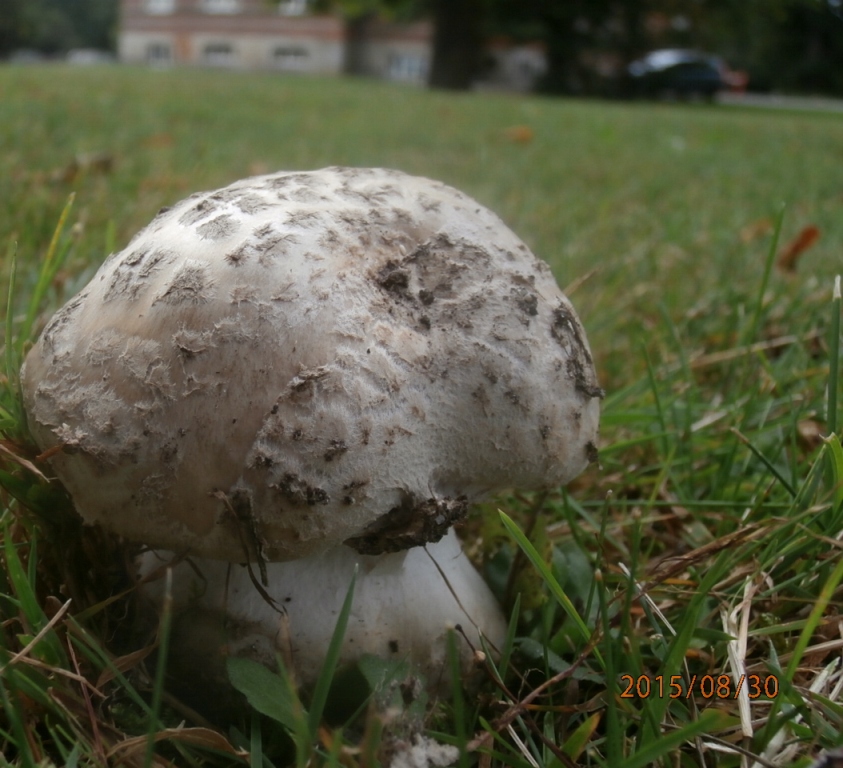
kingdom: Fungi
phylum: Basidiomycota
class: Agaricomycetes
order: Agaricales
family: Amanitaceae
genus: Amanita
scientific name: Amanita
